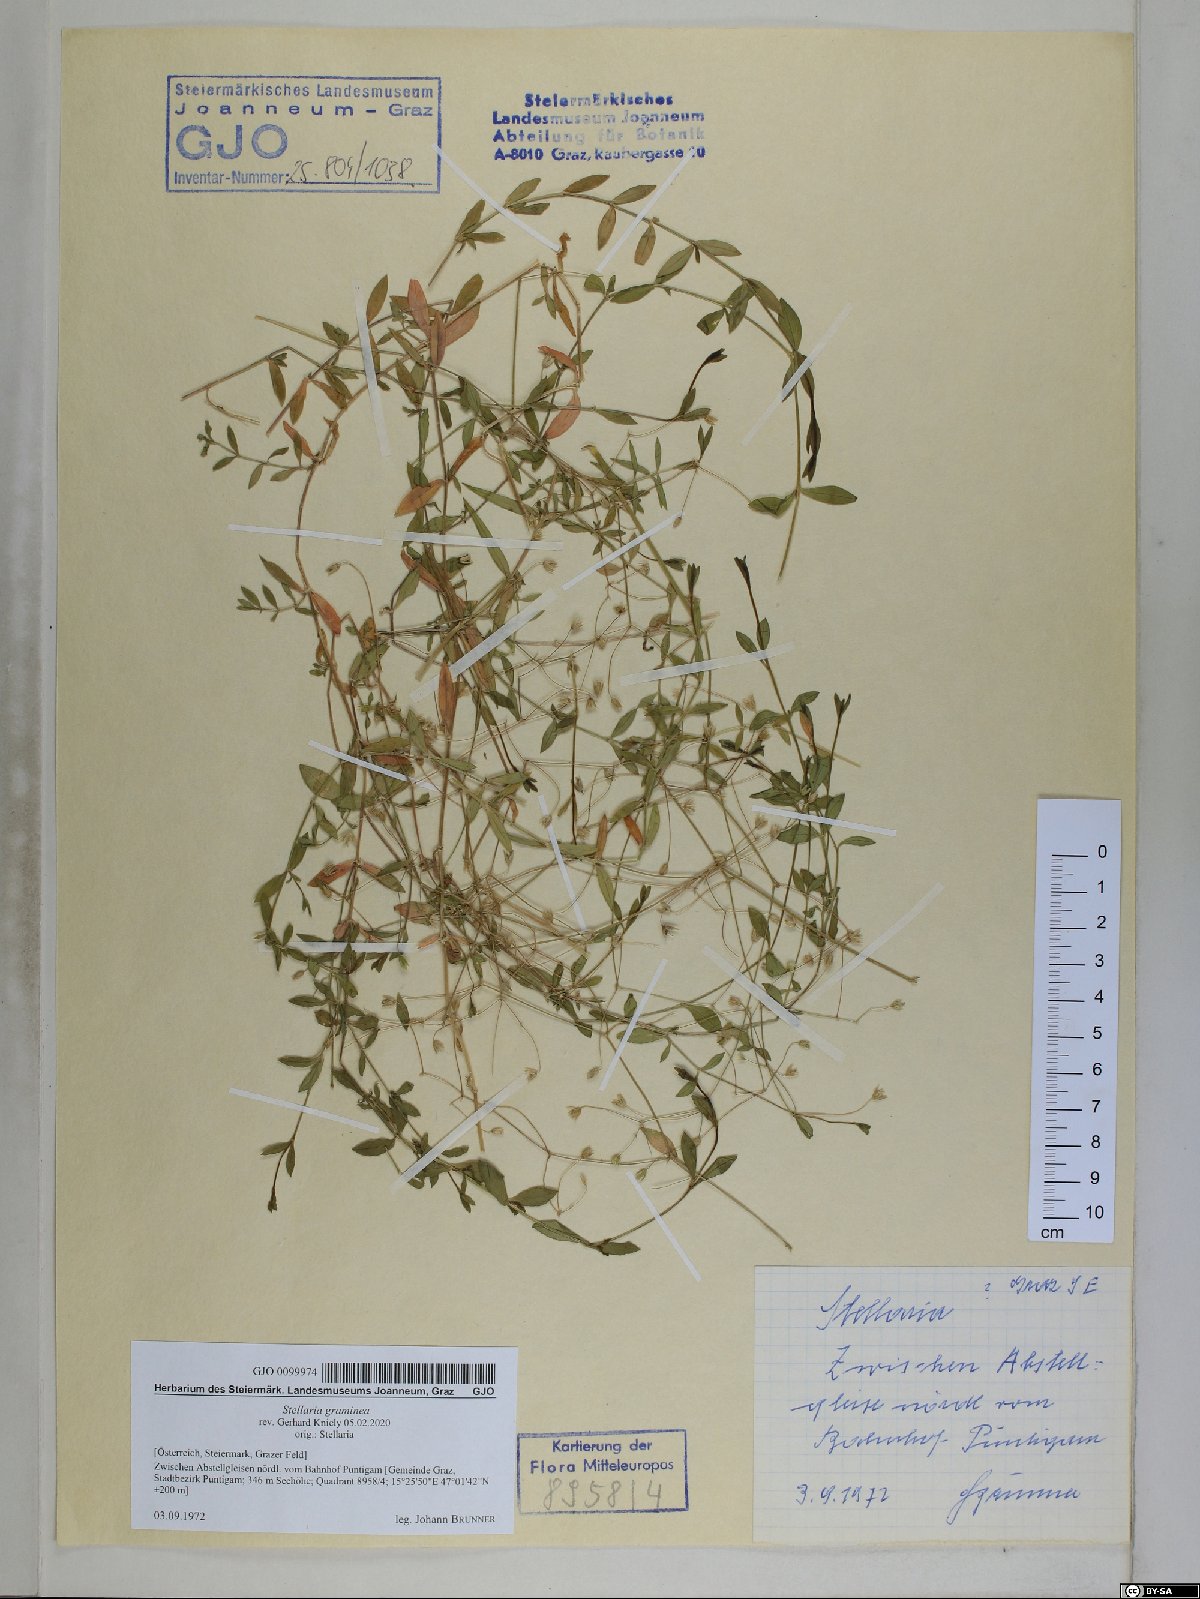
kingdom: Plantae
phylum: Tracheophyta
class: Magnoliopsida
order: Caryophyllales
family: Caryophyllaceae
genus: Stellaria
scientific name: Stellaria graminea
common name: Grass-like starwort
